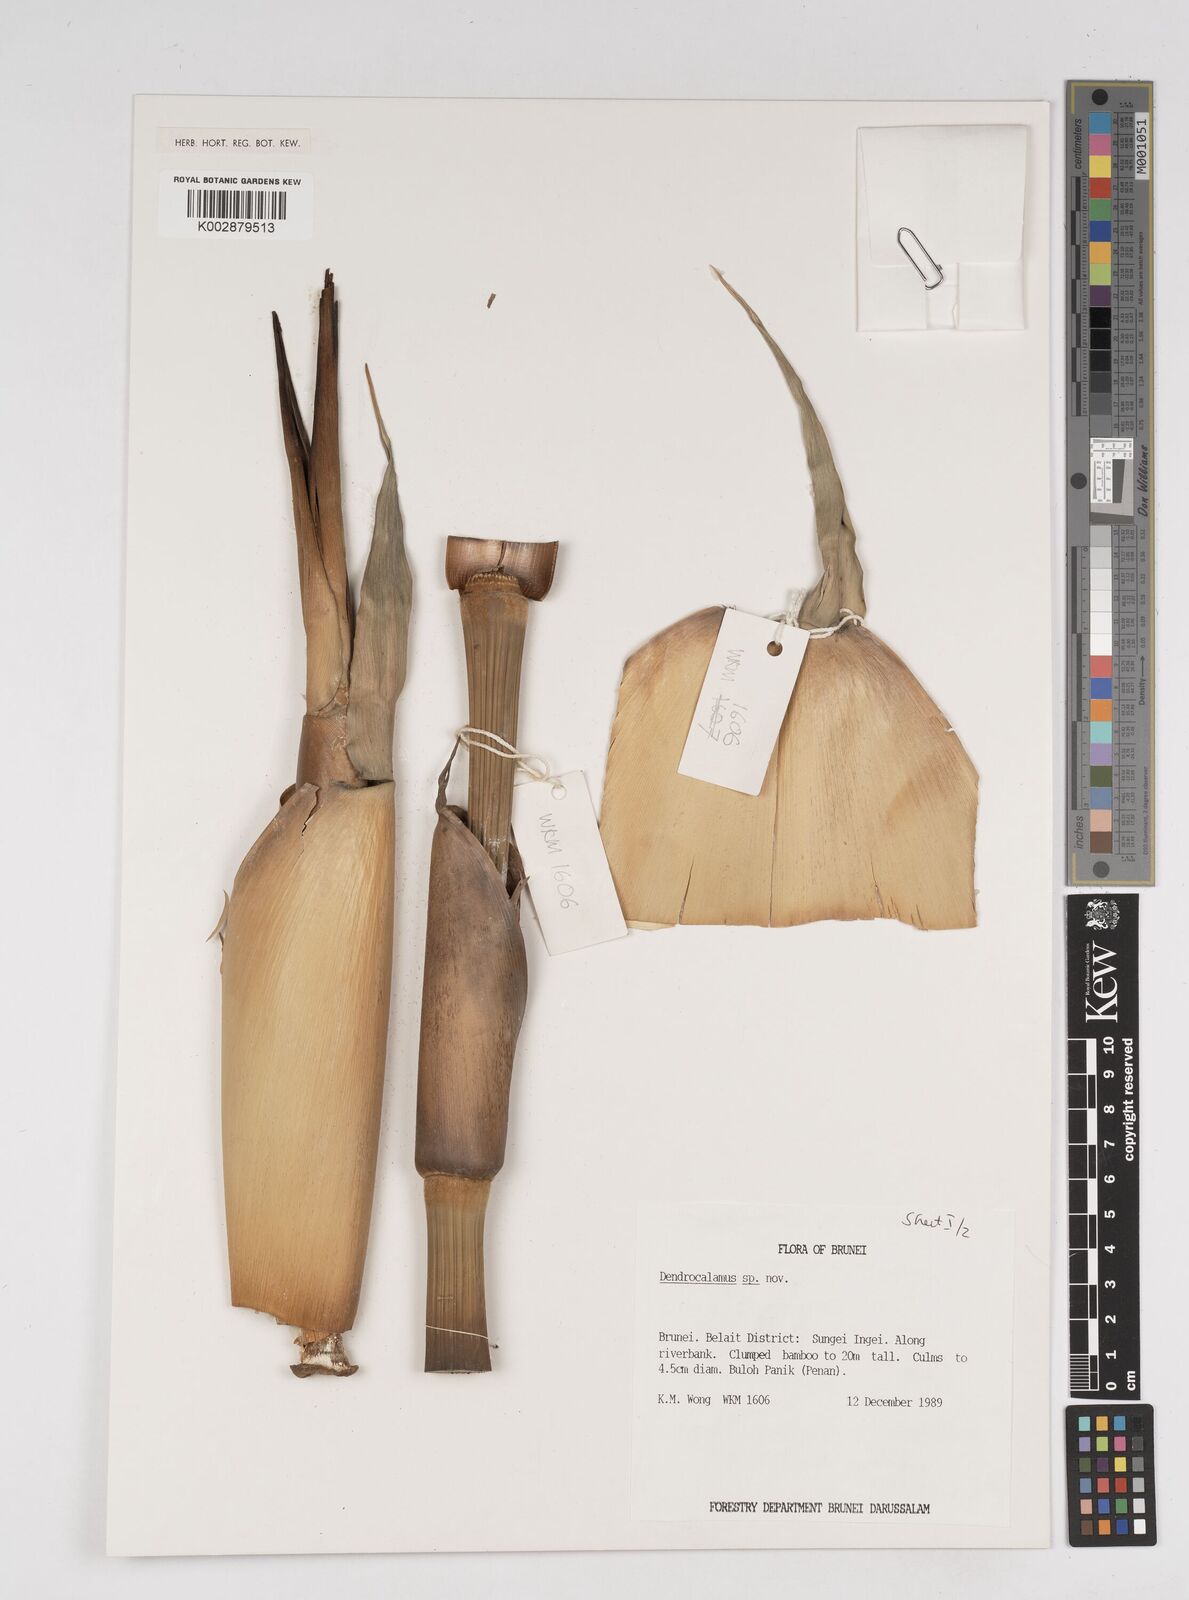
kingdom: Plantae
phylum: Tracheophyta
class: Liliopsida
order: Poales
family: Poaceae
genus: Dendrocalamus
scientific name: Dendrocalamus
